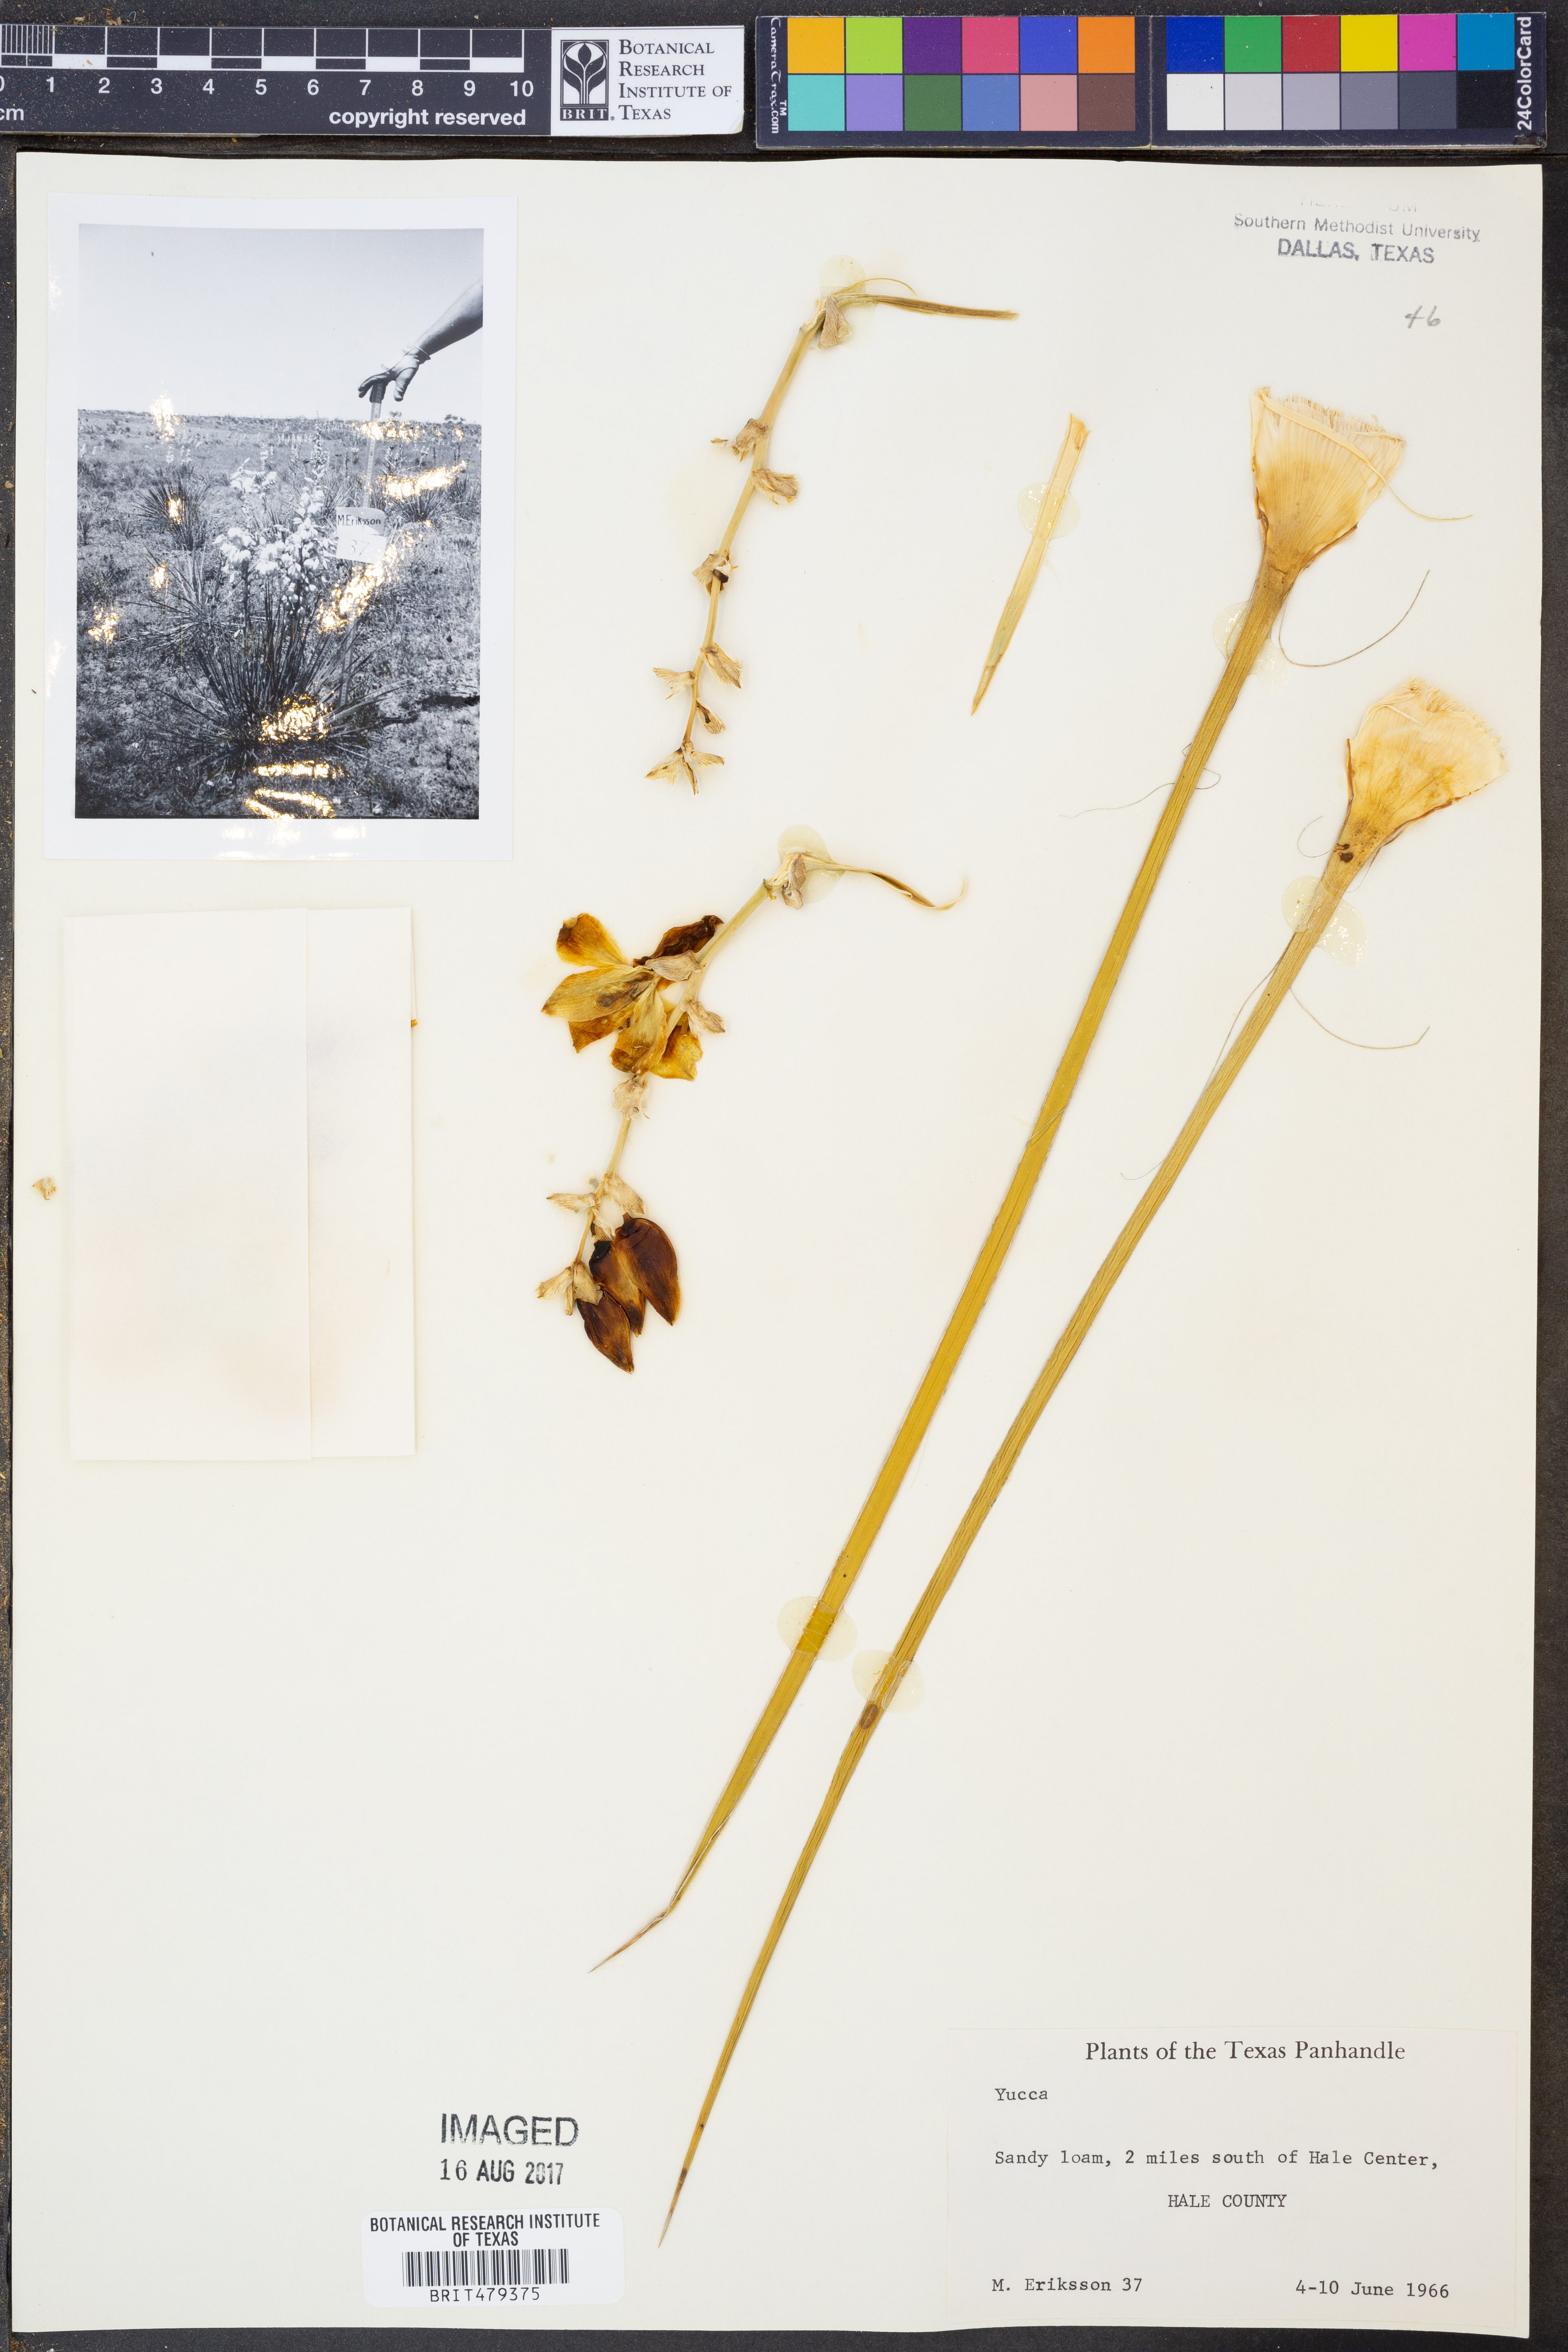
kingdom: Plantae
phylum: Tracheophyta
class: Liliopsida
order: Asparagales
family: Asparagaceae
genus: Yucca
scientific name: Yucca glauca
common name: Great plains yucca
